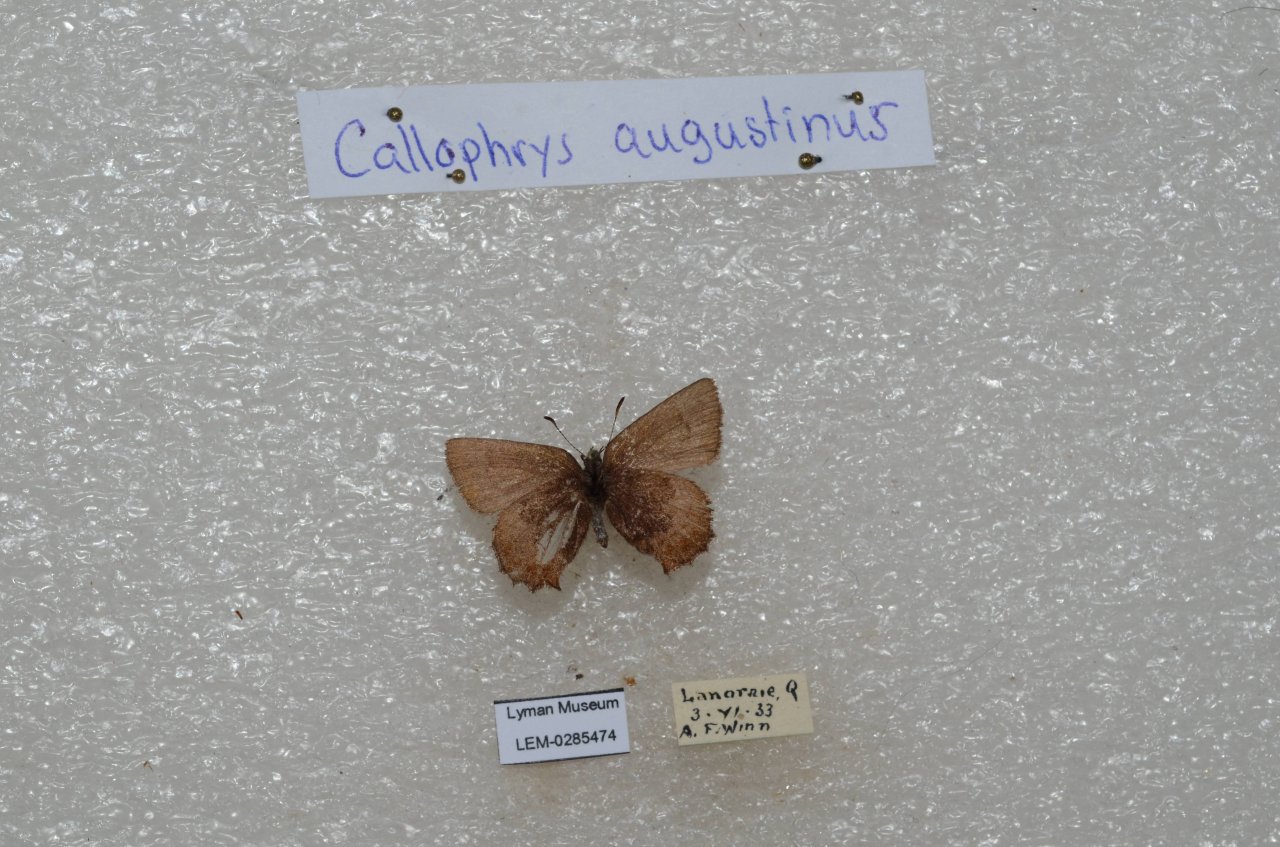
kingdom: Animalia
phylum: Arthropoda
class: Insecta
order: Lepidoptera
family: Lycaenidae
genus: Incisalia
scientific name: Incisalia irioides
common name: Brown Elfin
